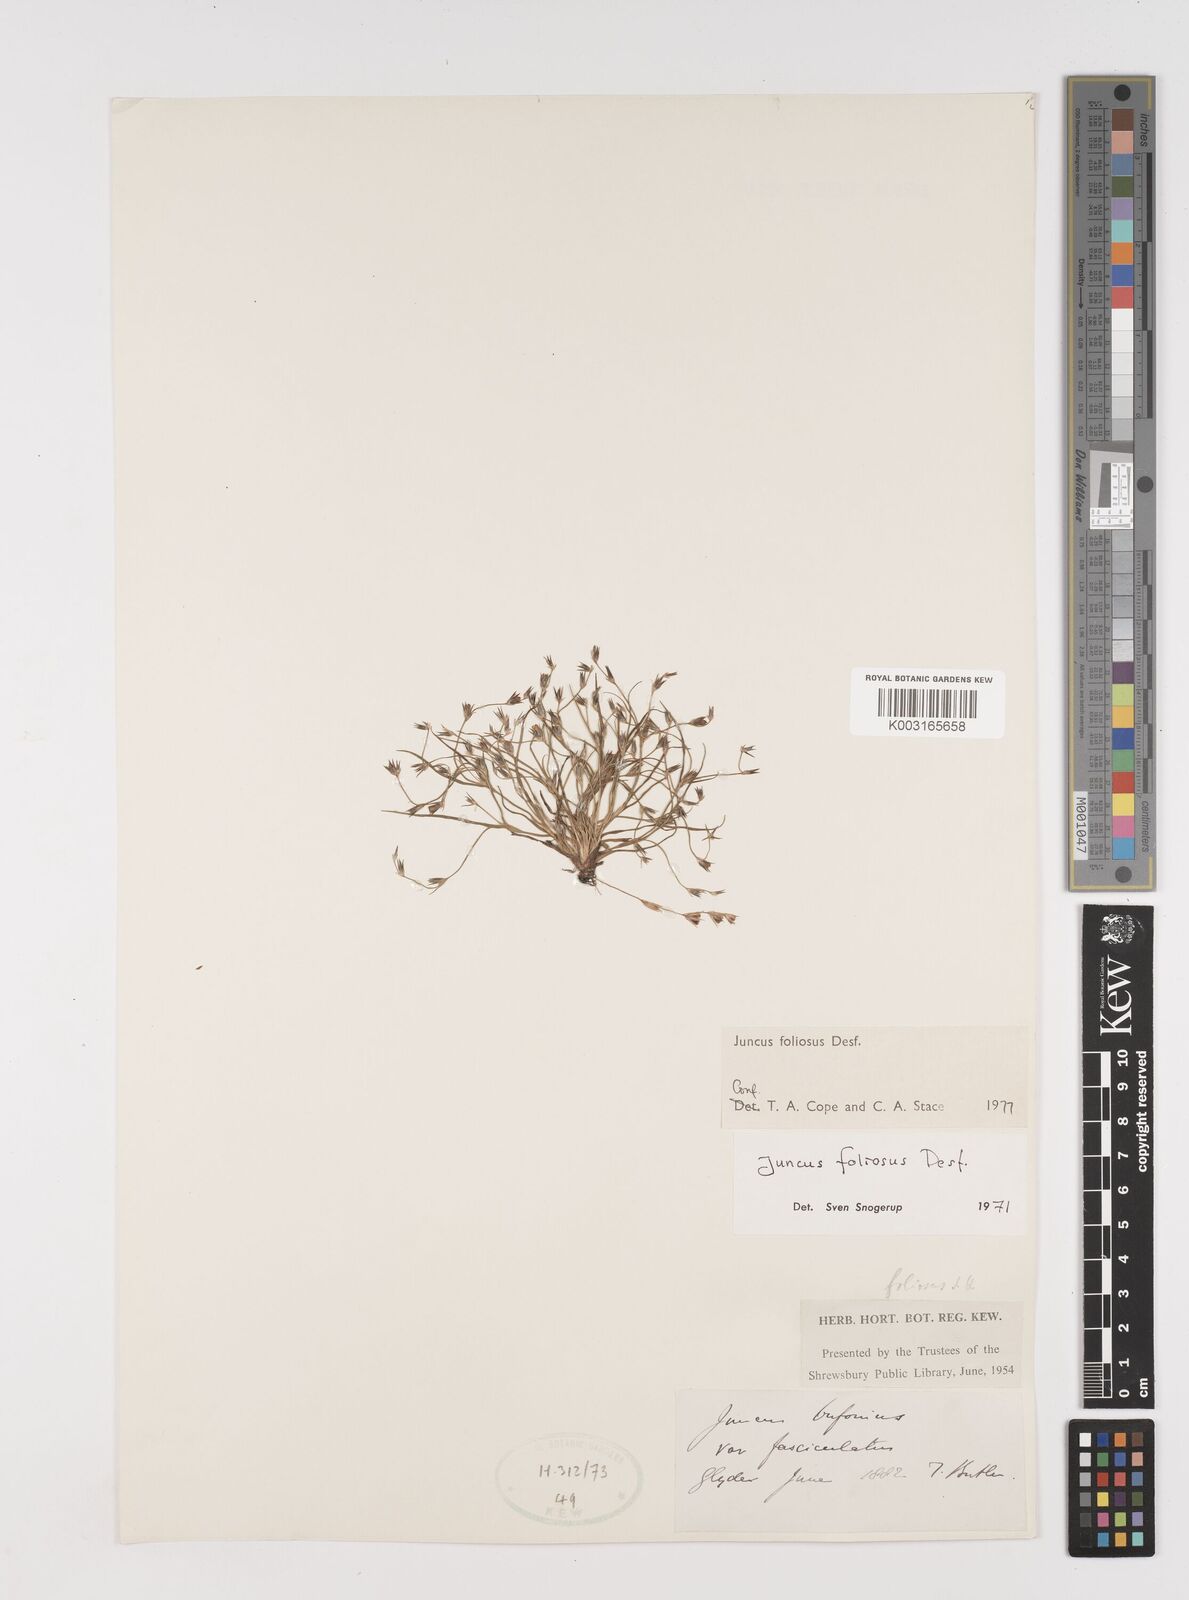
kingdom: Plantae
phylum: Tracheophyta
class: Liliopsida
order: Poales
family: Juncaceae
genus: Juncus
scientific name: Juncus foliosus
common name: Leafy rush
